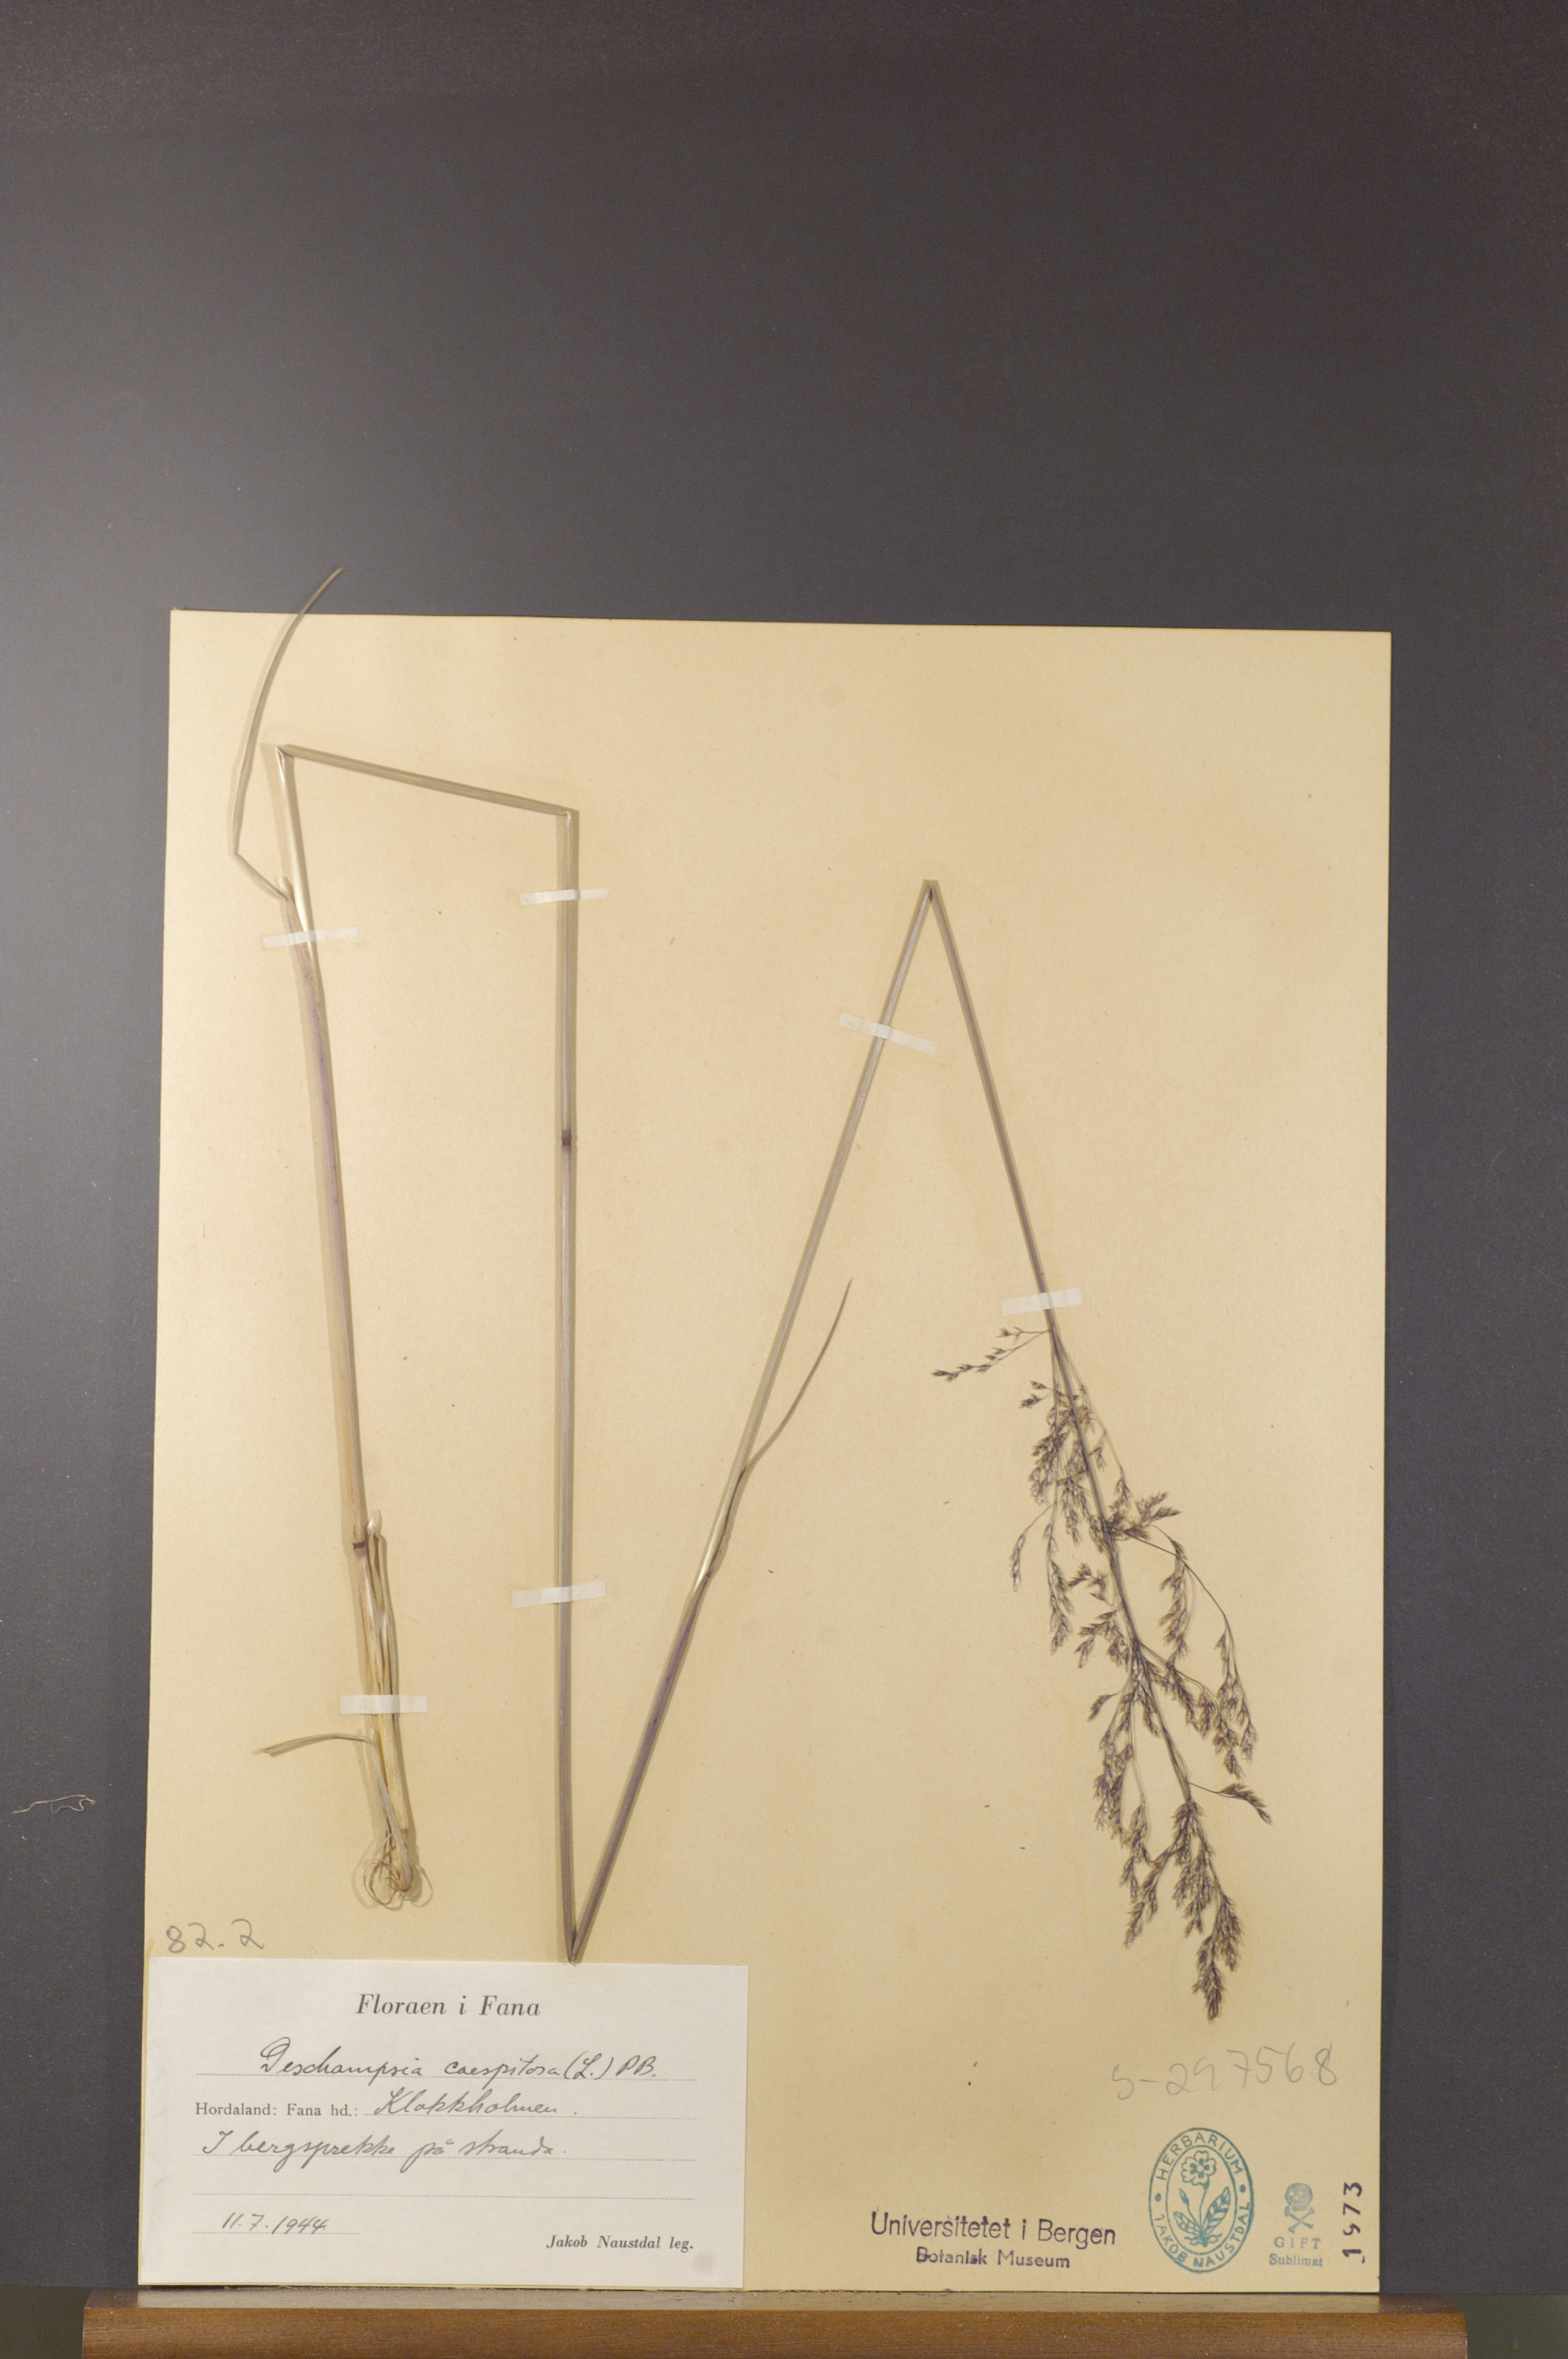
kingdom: Plantae
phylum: Tracheophyta
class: Liliopsida
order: Poales
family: Poaceae
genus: Deschampsia
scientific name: Deschampsia cespitosa
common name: Tufted hair-grass
